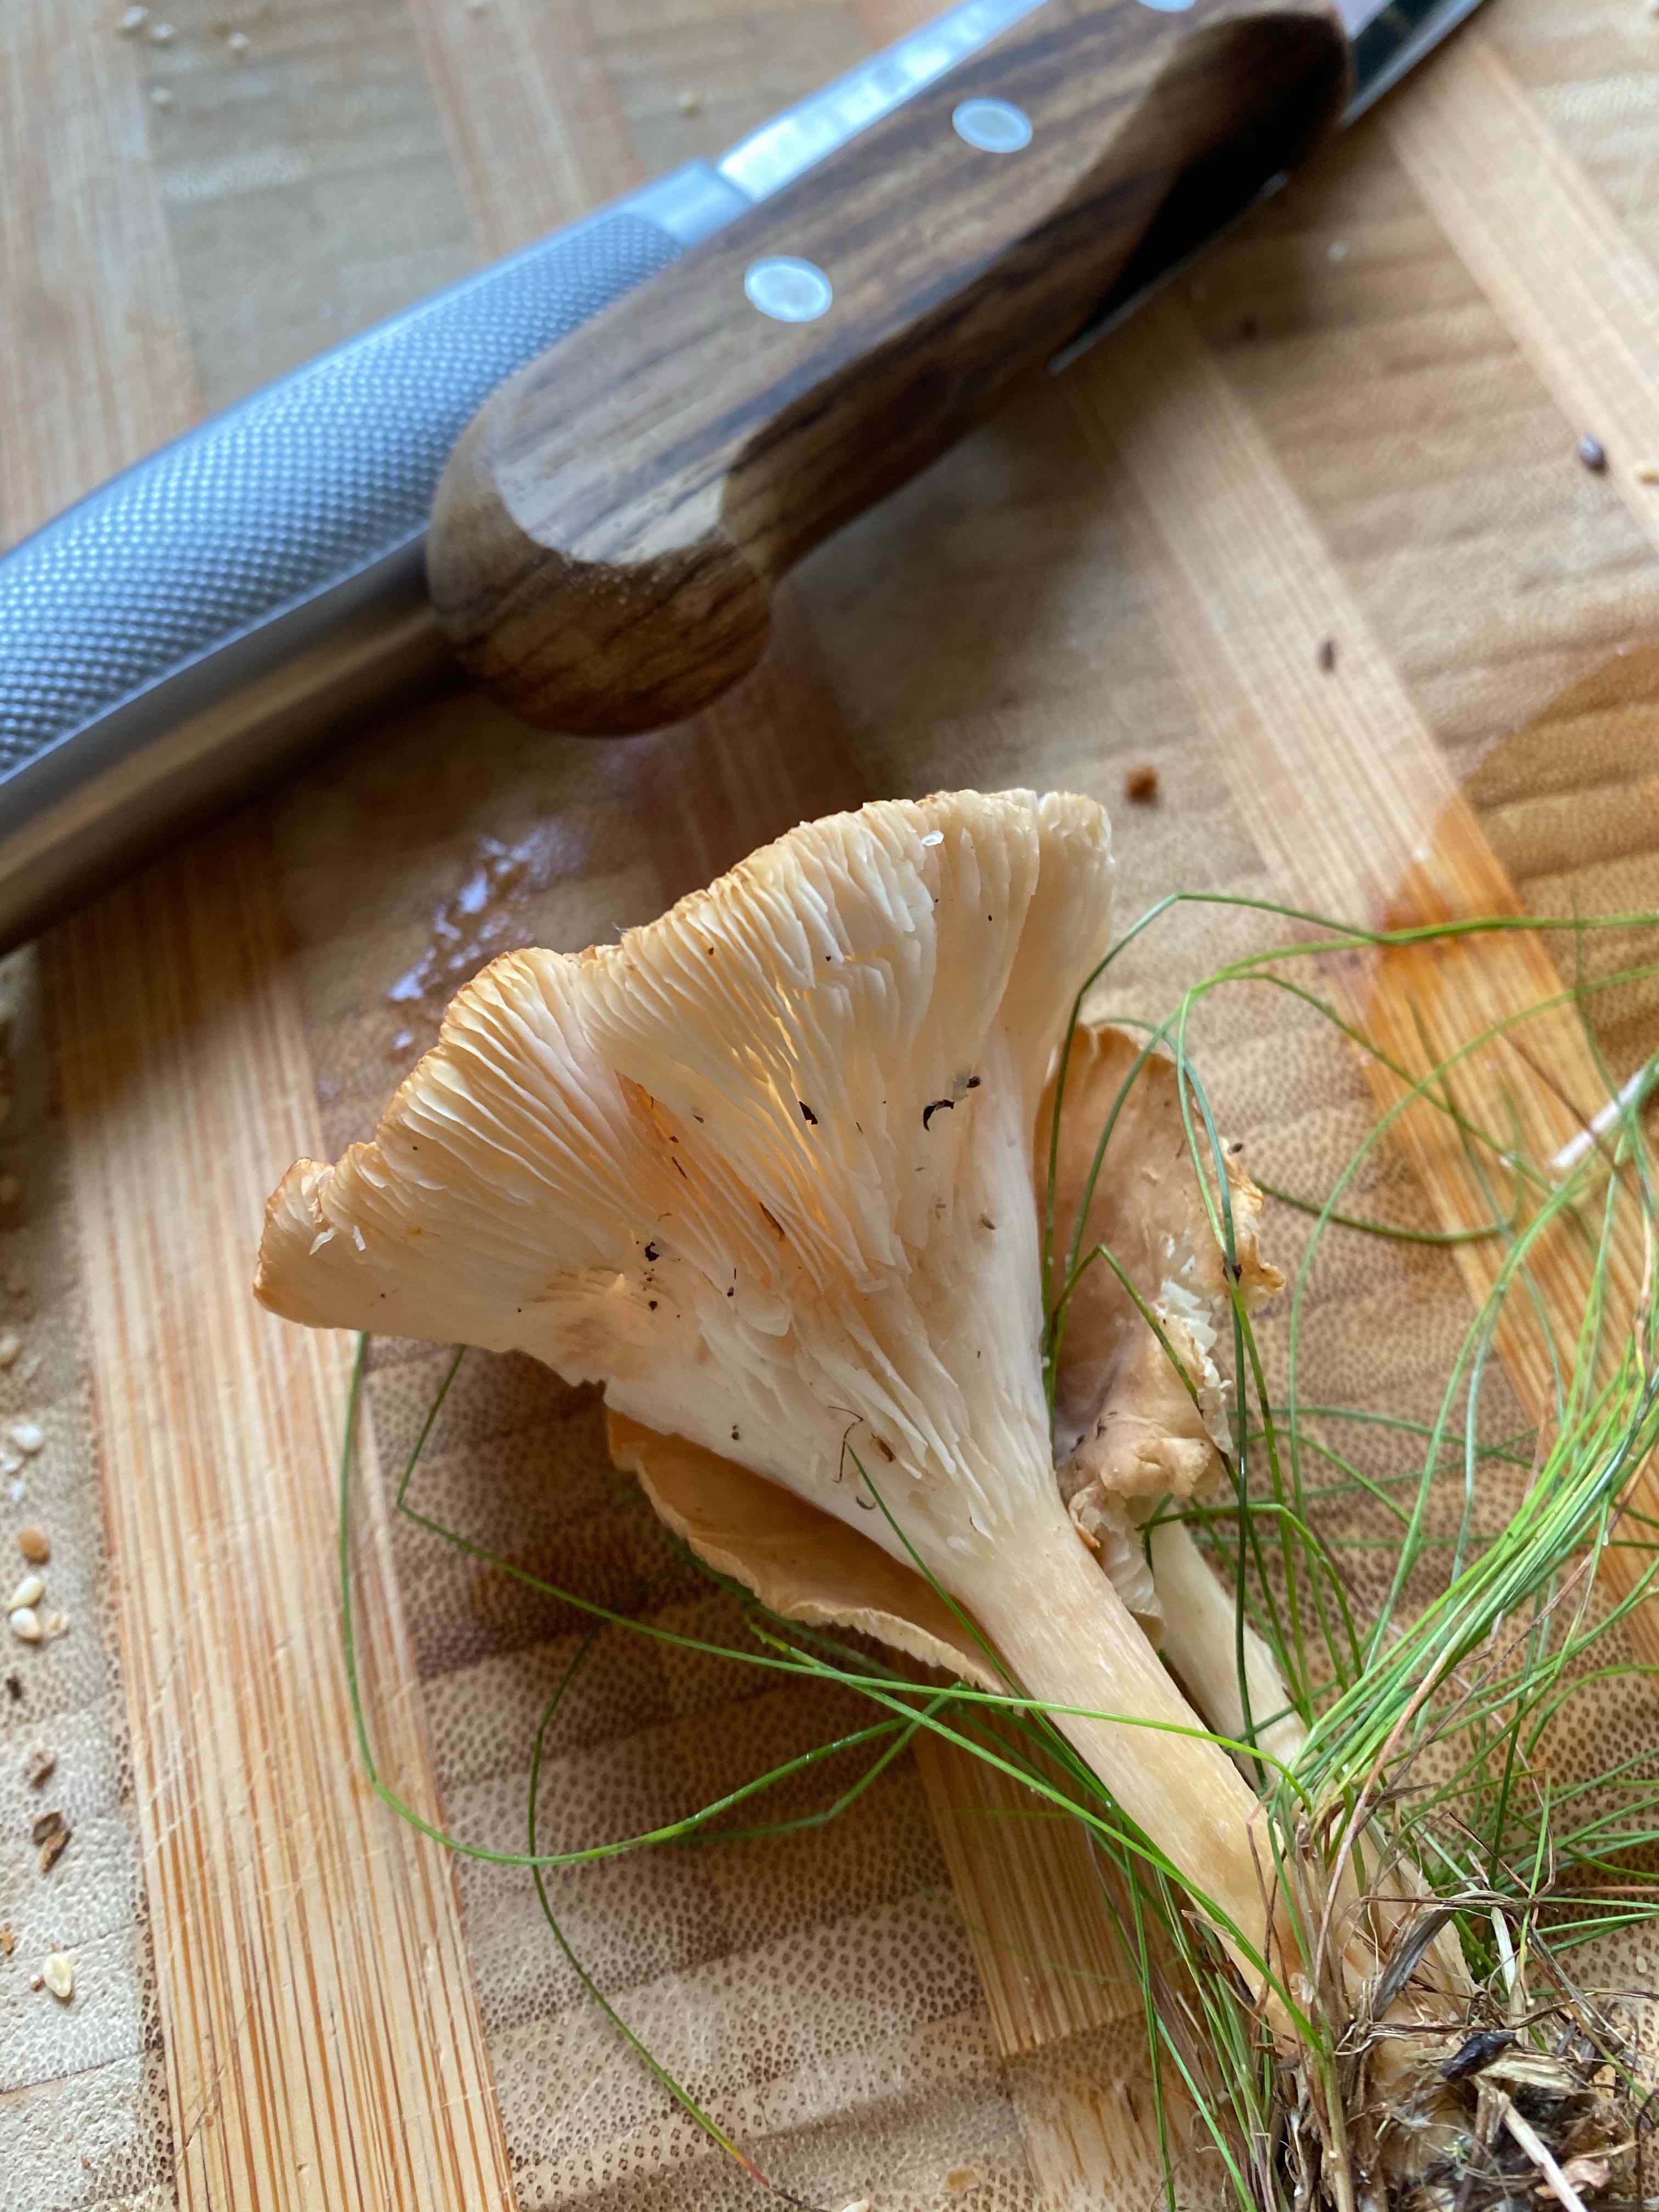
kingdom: Fungi
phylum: Basidiomycota
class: Agaricomycetes
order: Agaricales
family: Tricholomataceae
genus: Infundibulicybe
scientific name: Infundibulicybe
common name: tragthat
